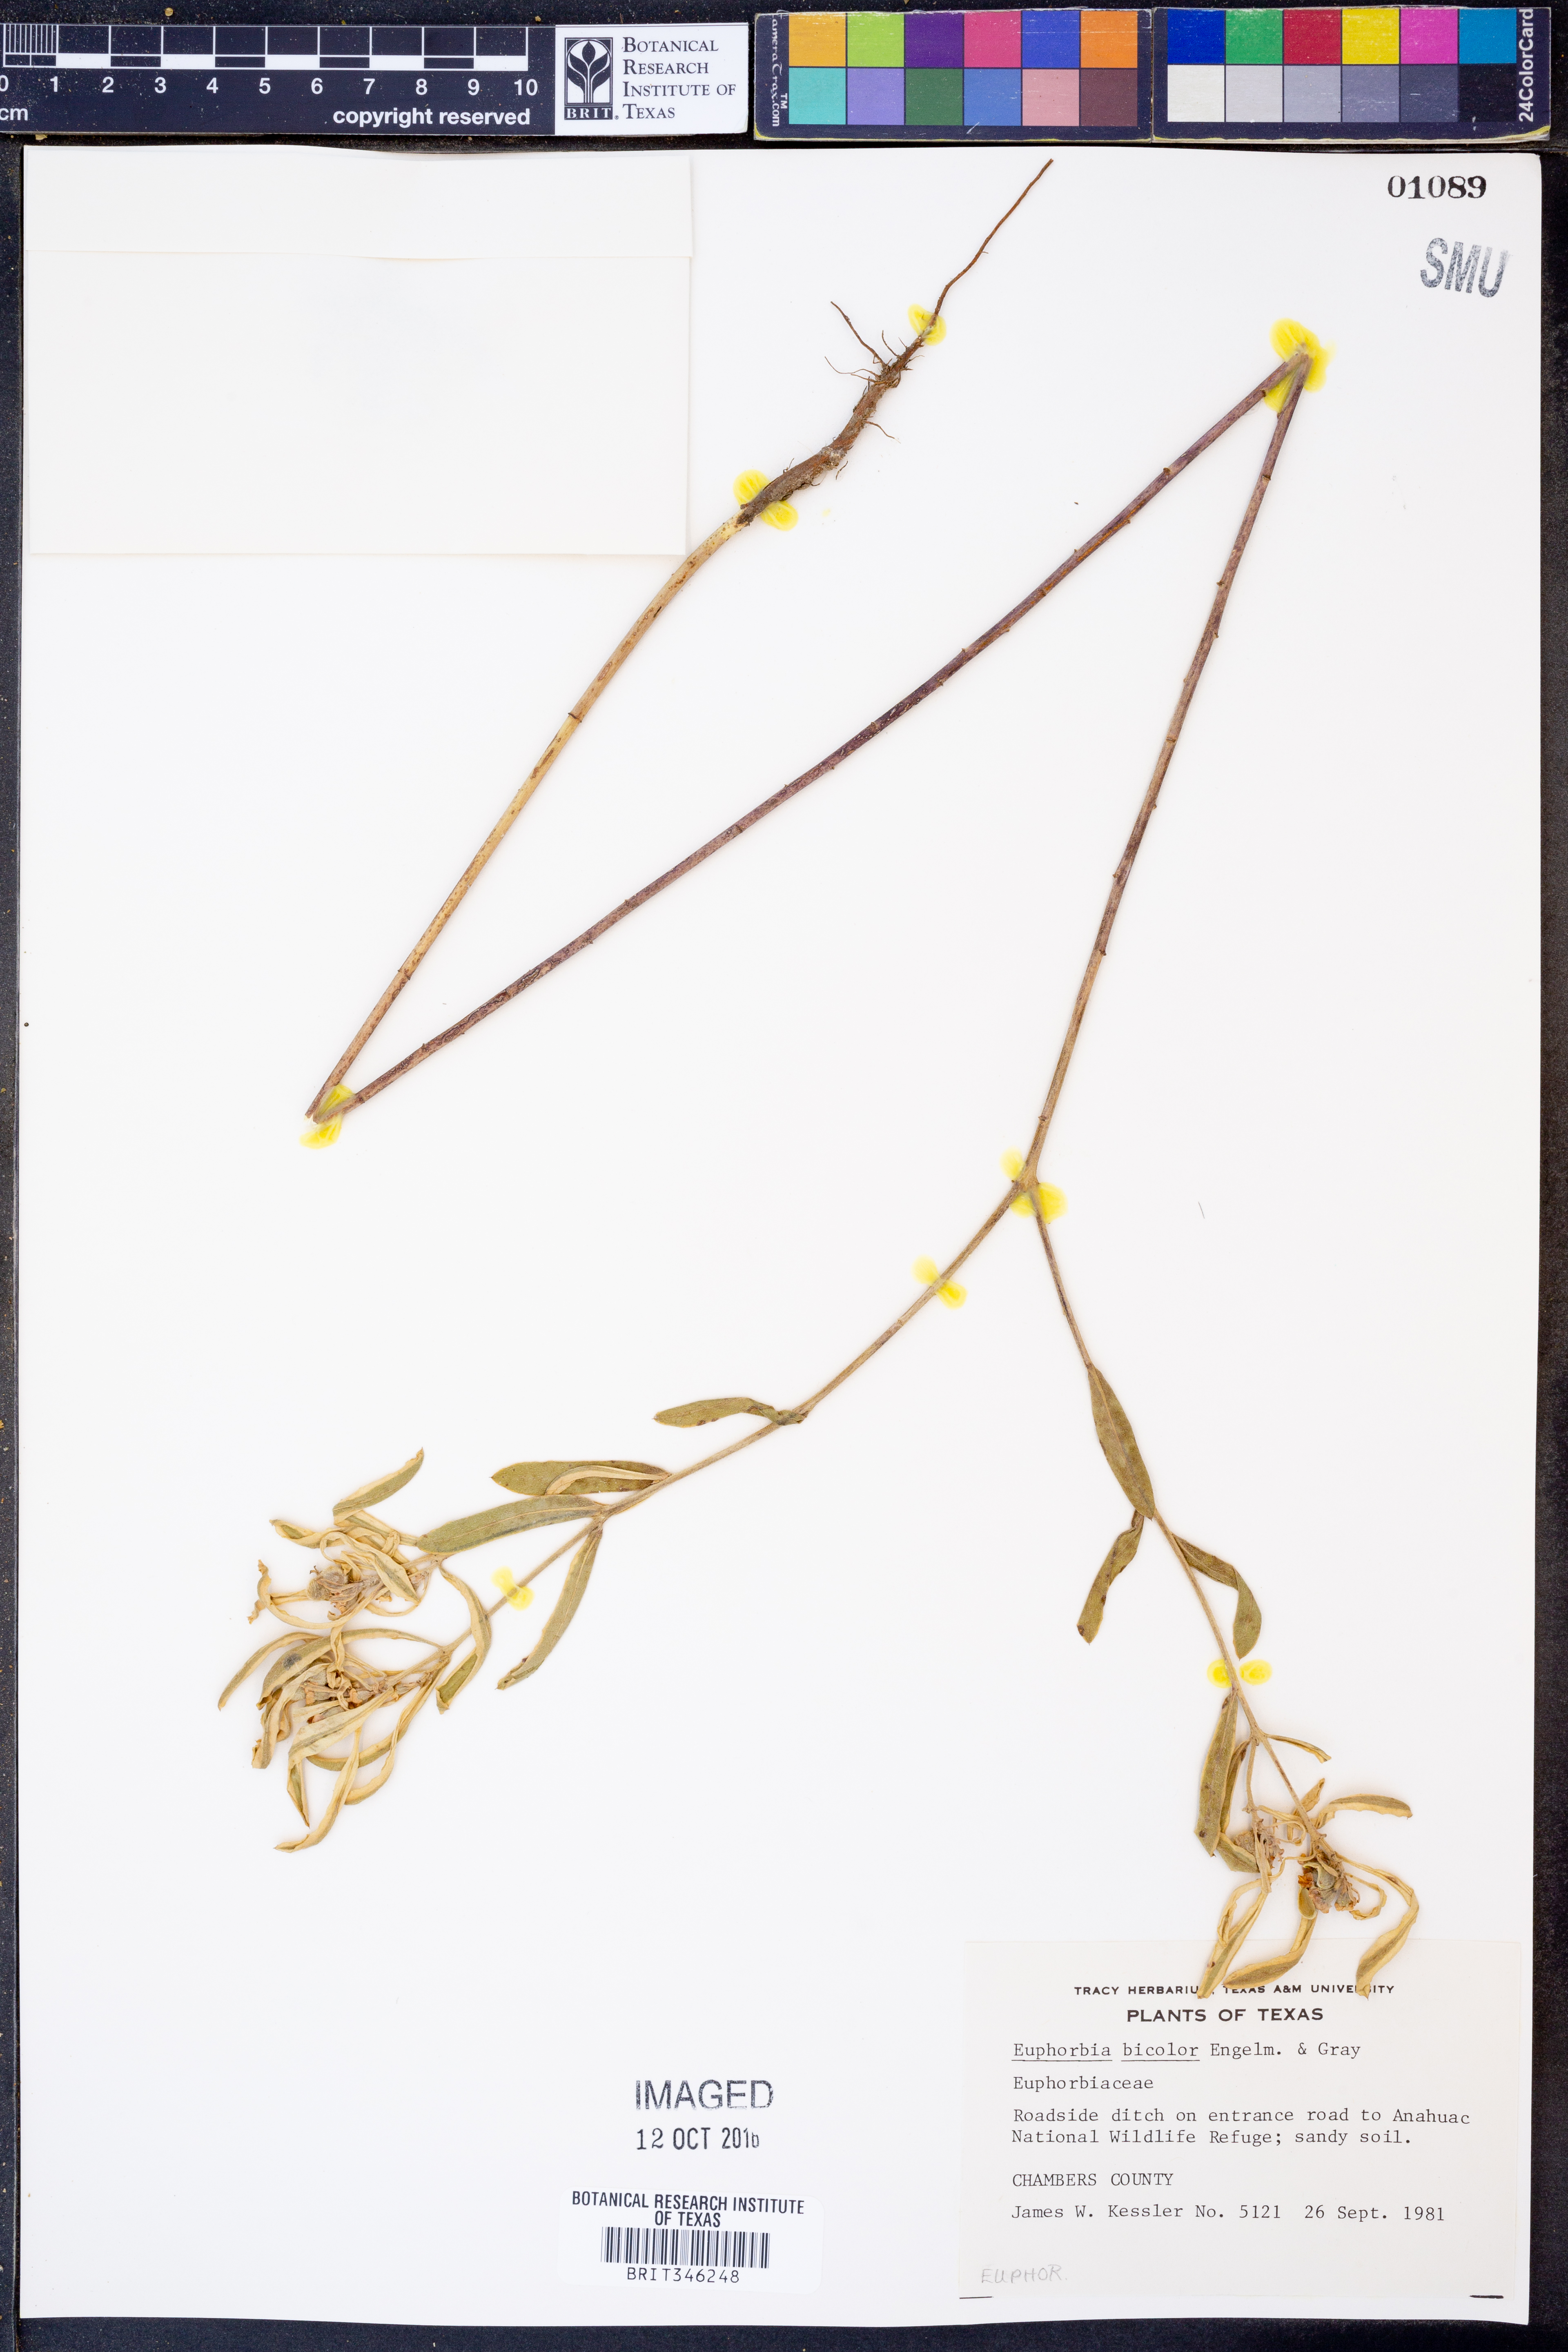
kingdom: Plantae
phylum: Tracheophyta
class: Magnoliopsida
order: Malpighiales
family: Euphorbiaceae
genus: Euphorbia
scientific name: Euphorbia bicolor
